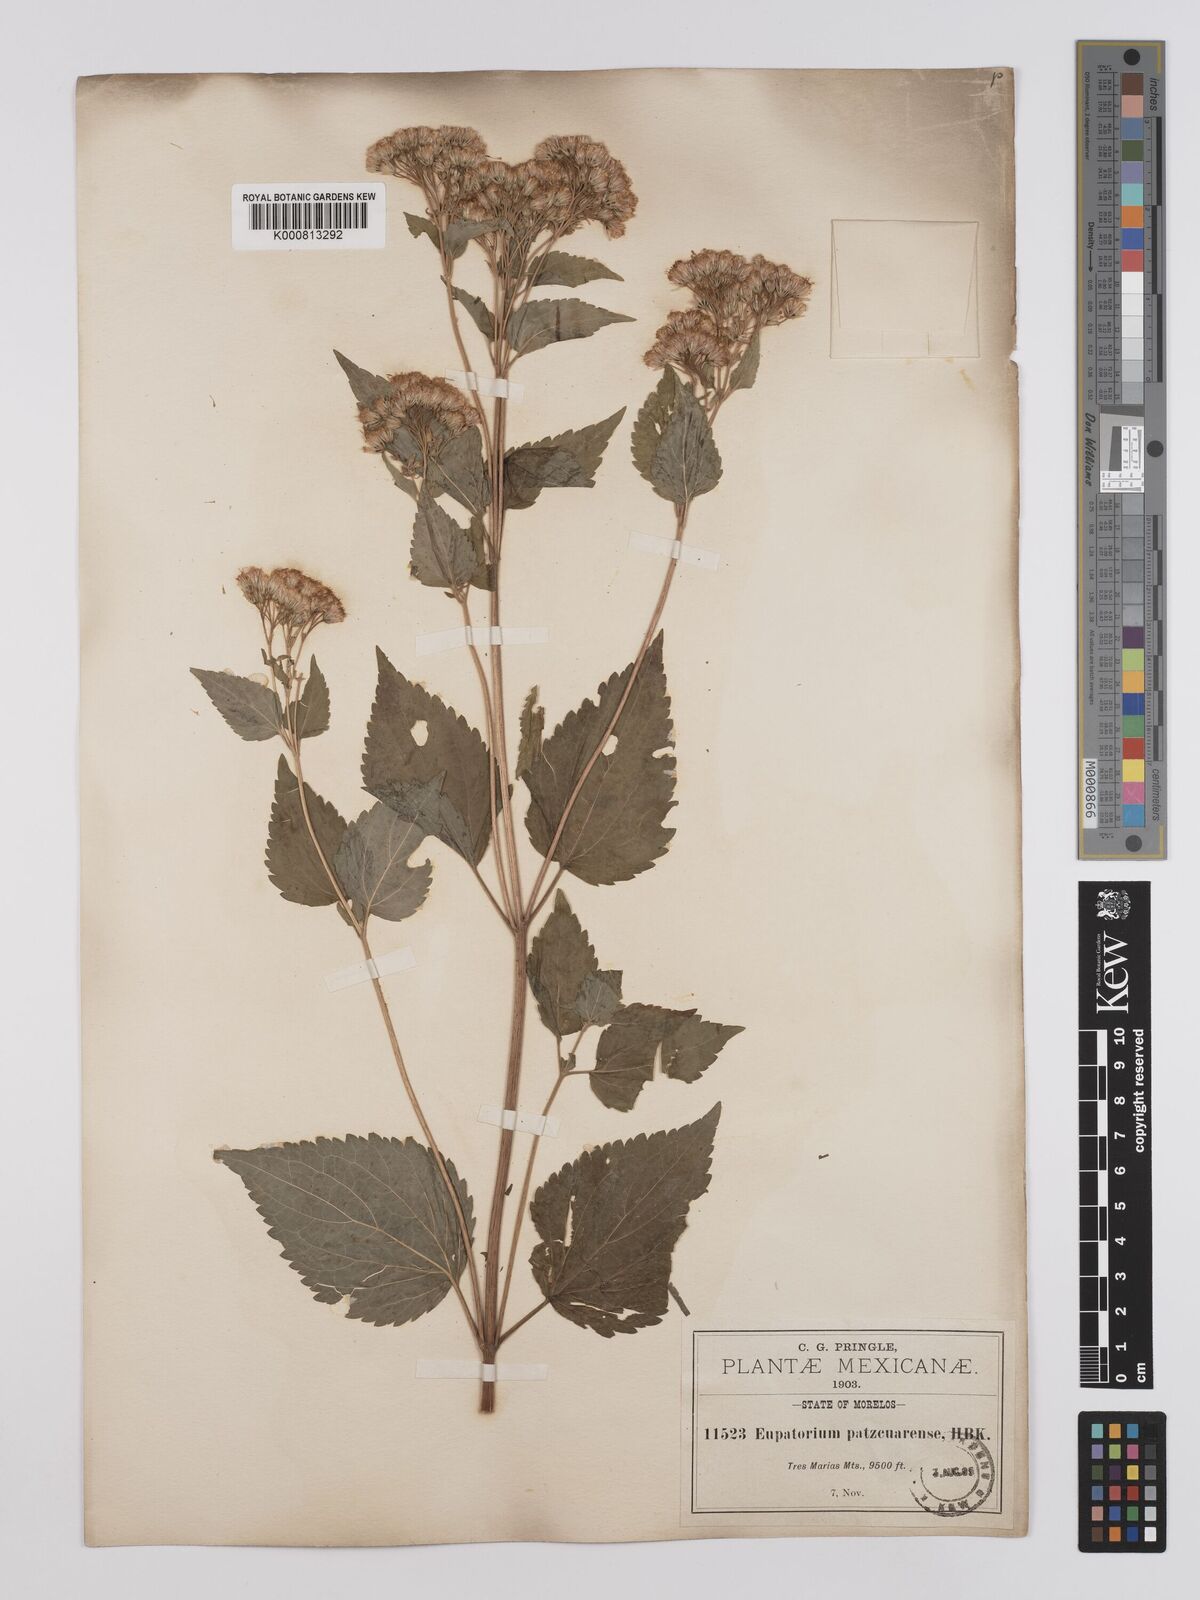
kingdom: Plantae
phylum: Tracheophyta
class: Magnoliopsida
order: Asterales
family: Asteraceae
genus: Ageratina
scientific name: Ageratina pazcuarensis
